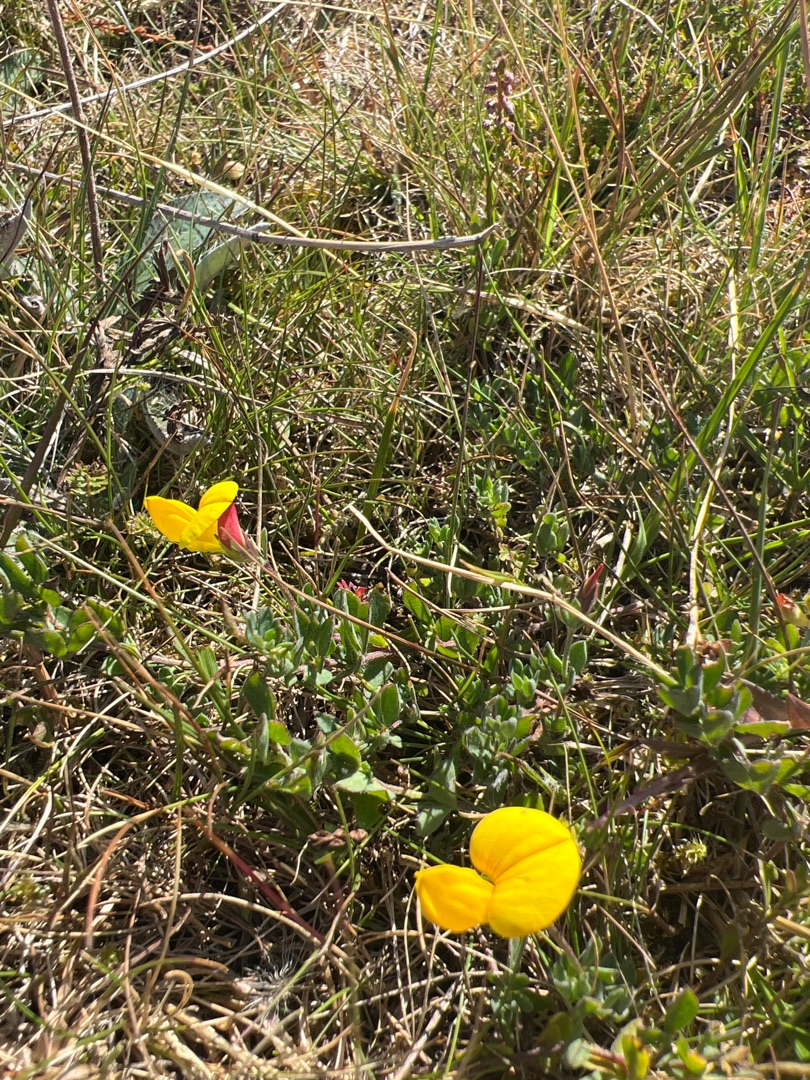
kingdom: Plantae
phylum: Tracheophyta
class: Magnoliopsida
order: Fabales
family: Fabaceae
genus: Lotus
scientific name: Lotus corniculatus
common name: Almindelig kællingetand
